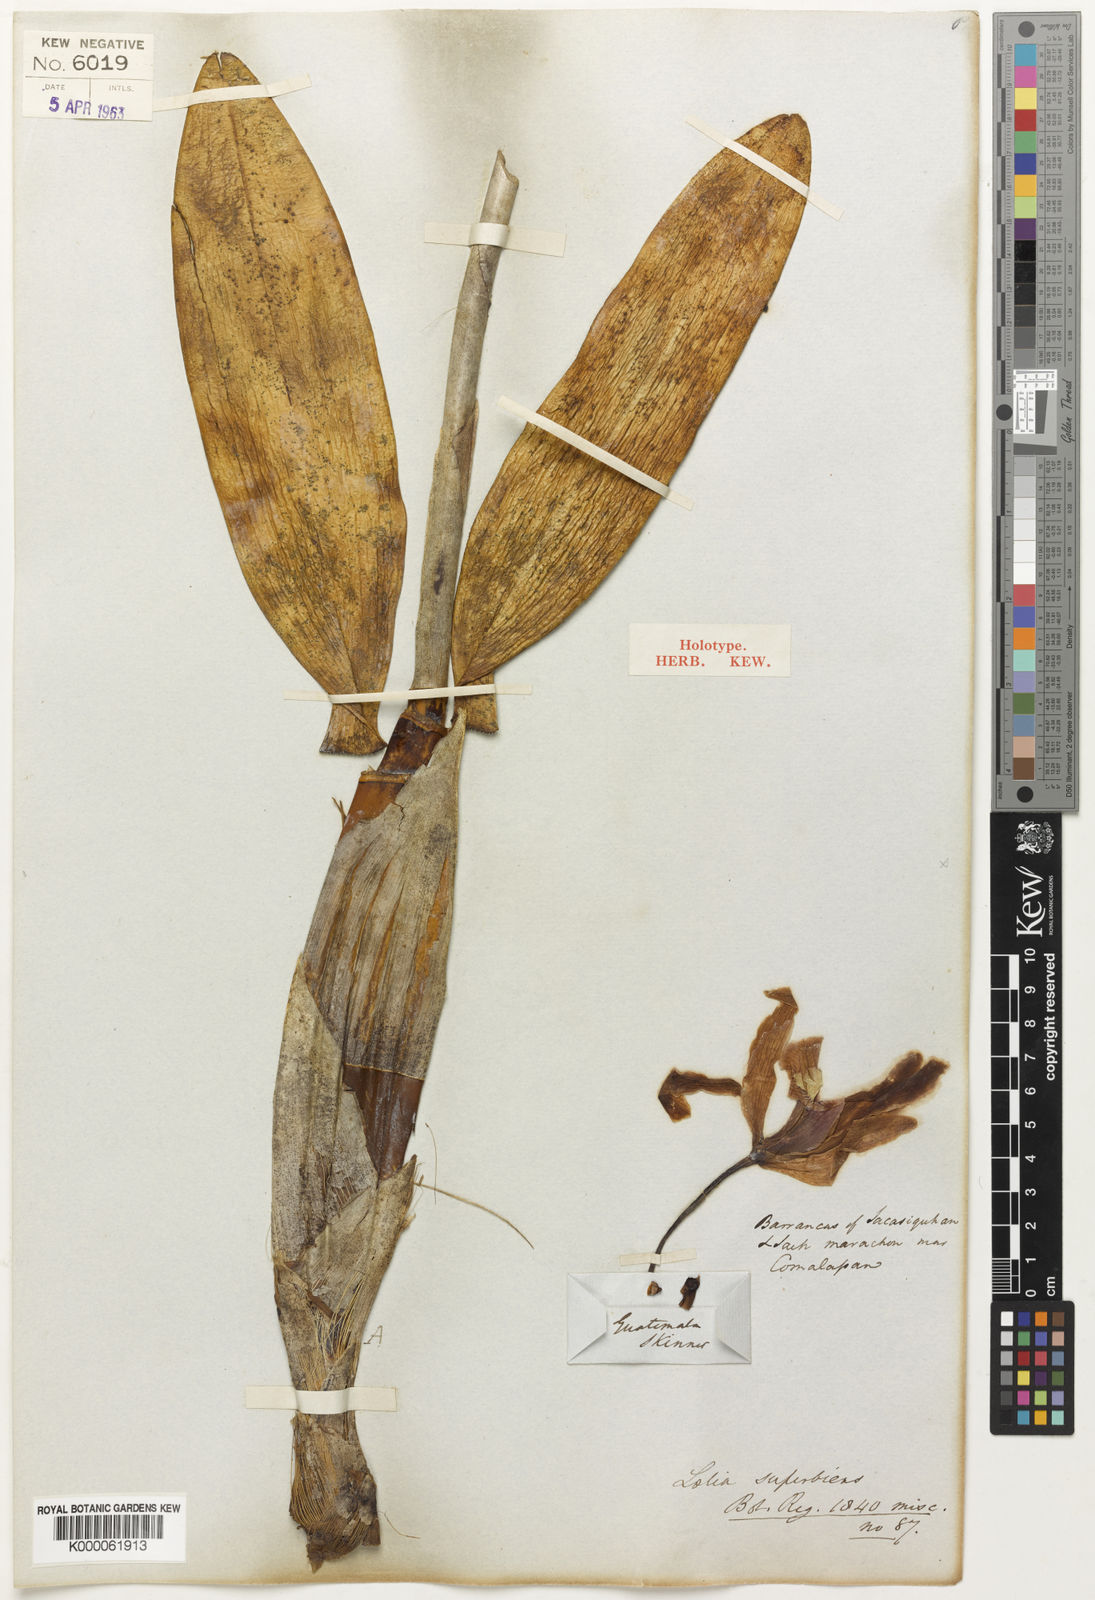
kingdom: Plantae
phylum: Tracheophyta
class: Liliopsida
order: Asparagales
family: Orchidaceae
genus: Laelia
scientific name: Laelia superbiens
